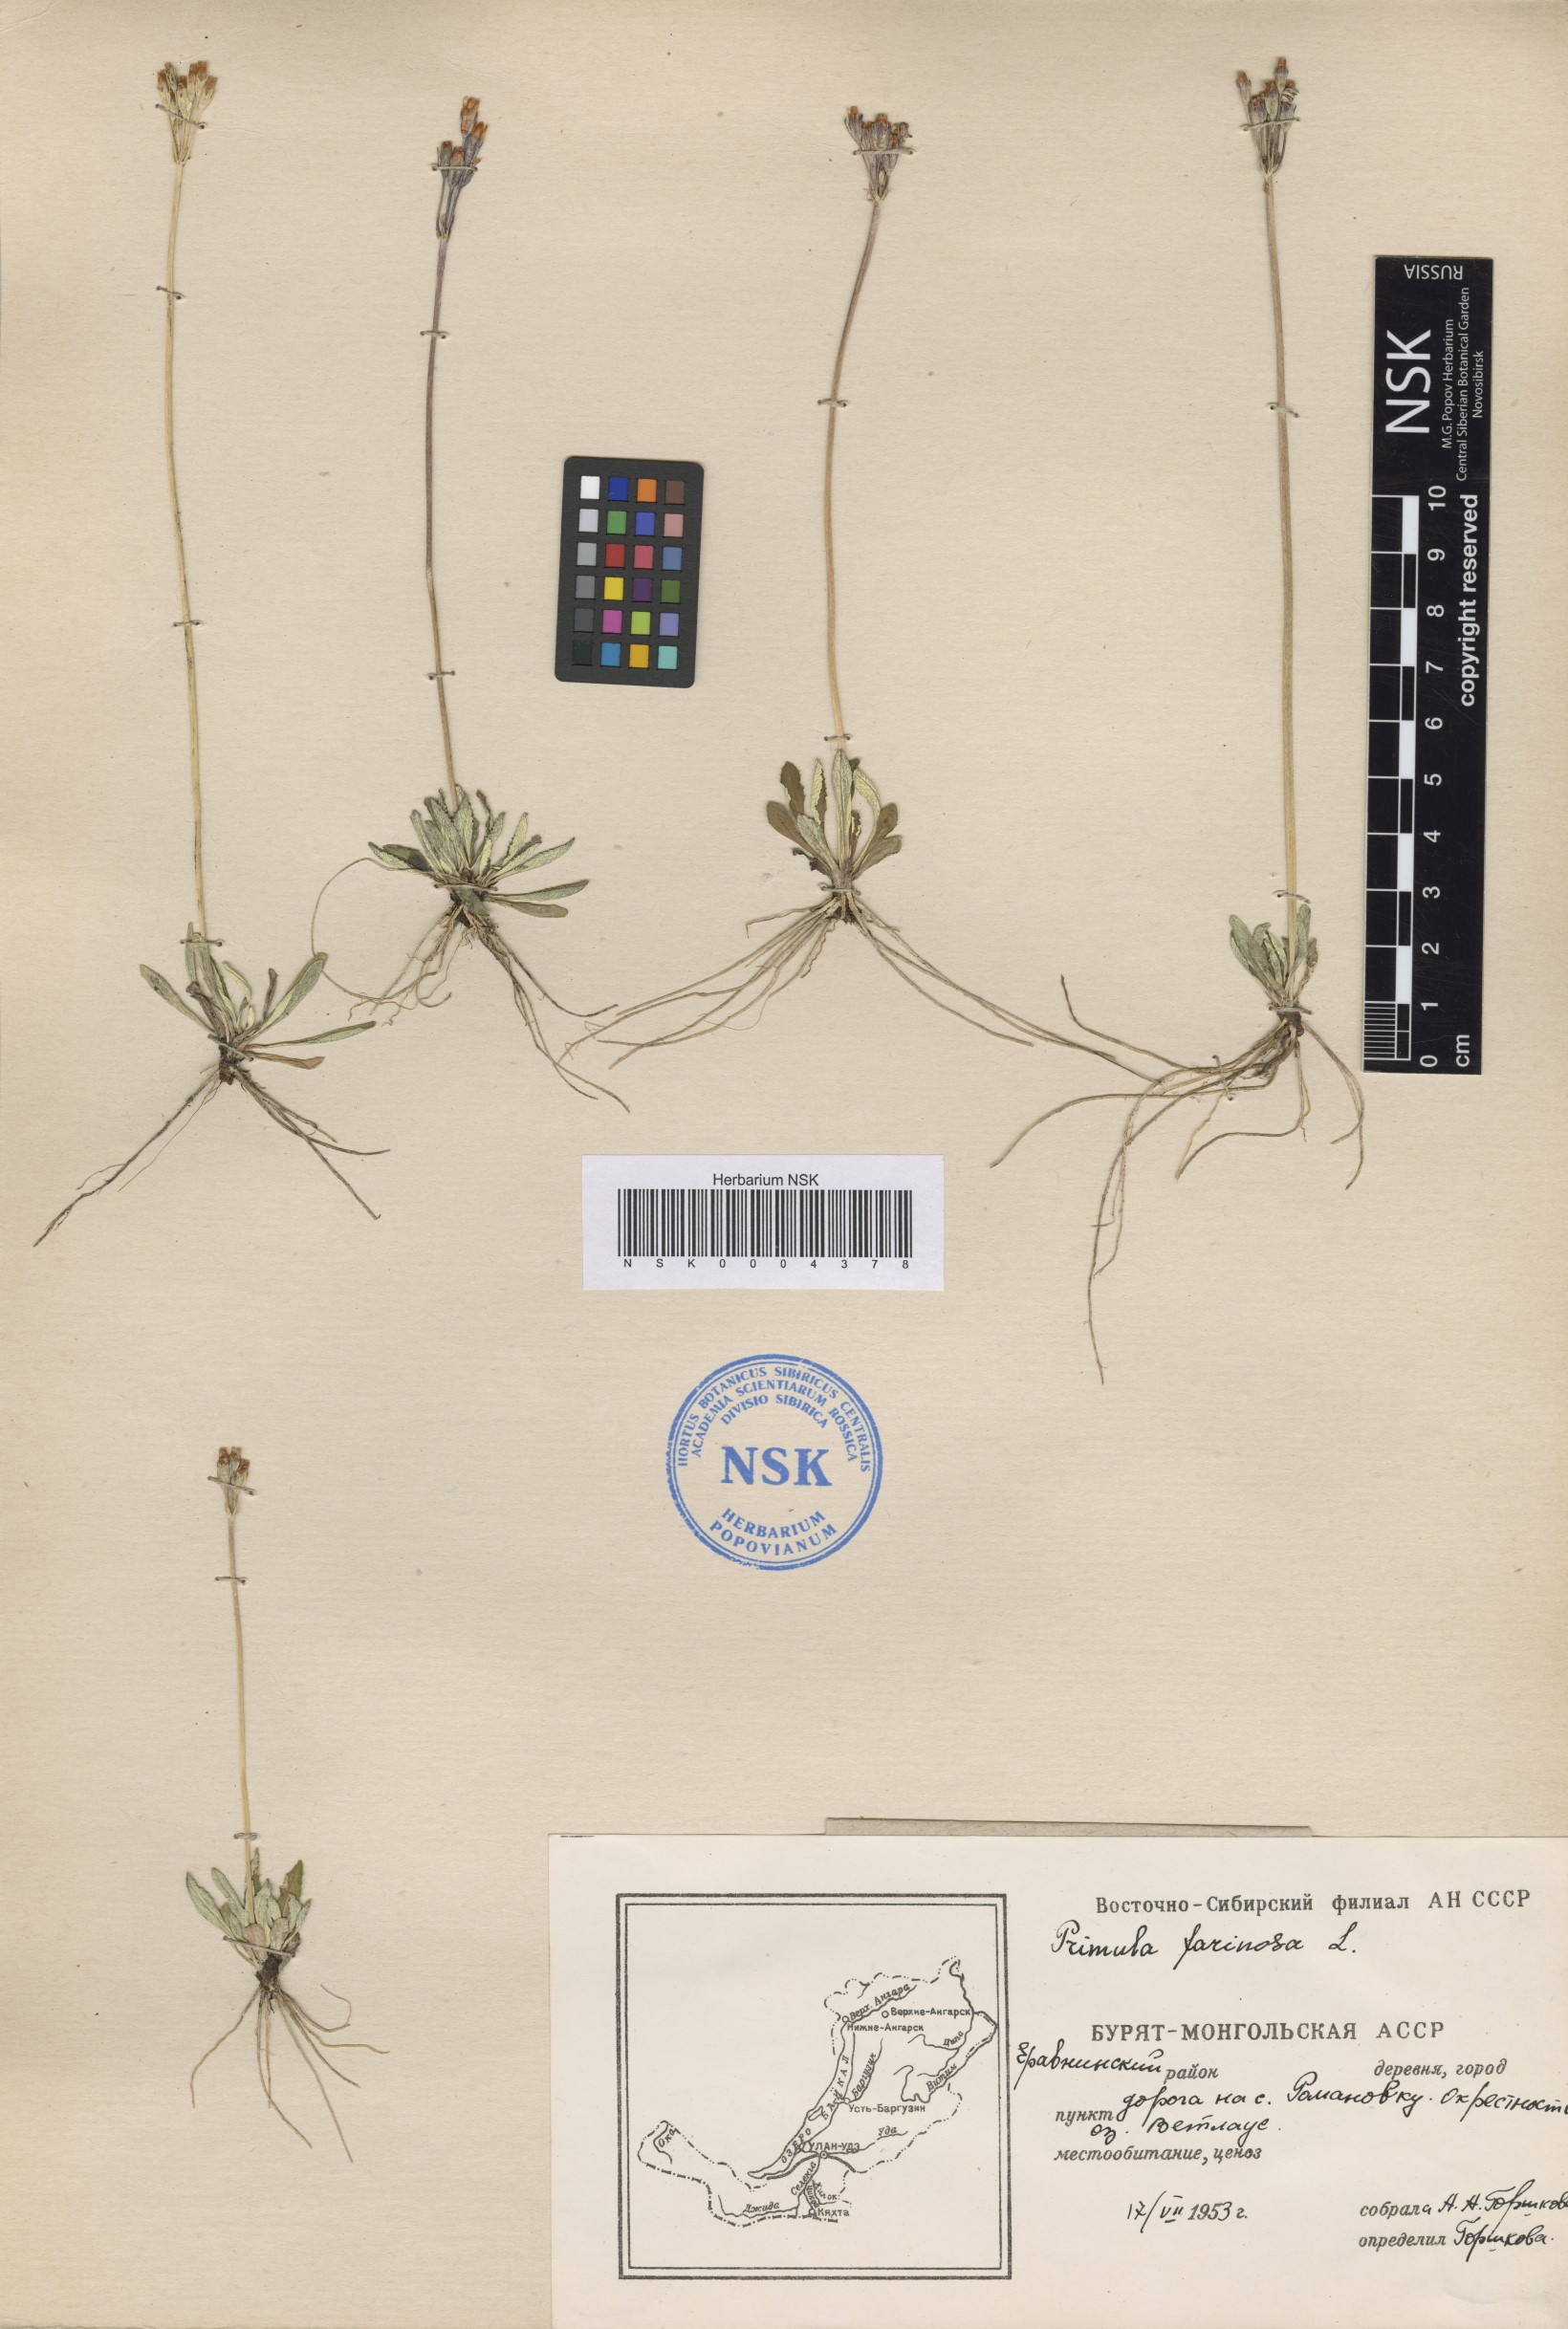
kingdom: Plantae
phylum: Tracheophyta
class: Magnoliopsida
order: Ericales
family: Primulaceae
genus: Primula
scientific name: Primula farinosa
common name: Bird's-eye primrose
